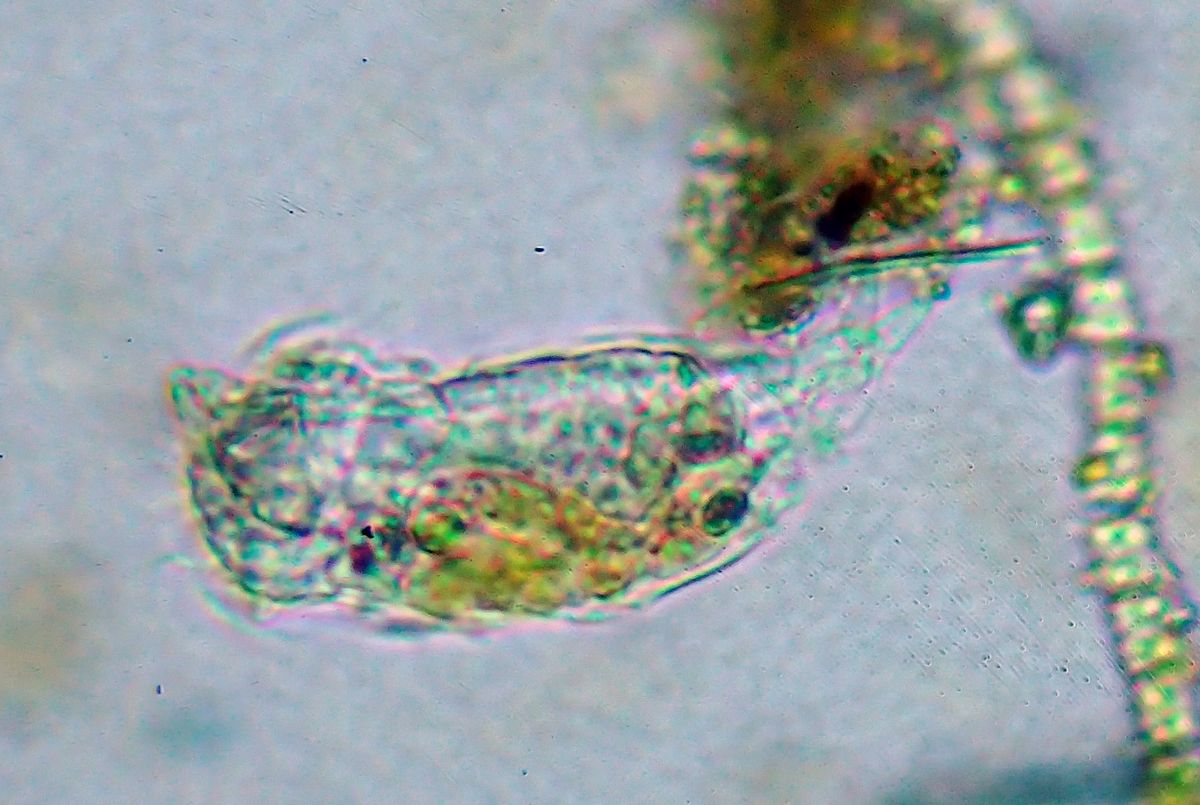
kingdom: Animalia
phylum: Rotifera
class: Eurotatoria
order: Ploima
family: Notommatidae
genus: Cephalodella
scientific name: Cephalodella auriculata
